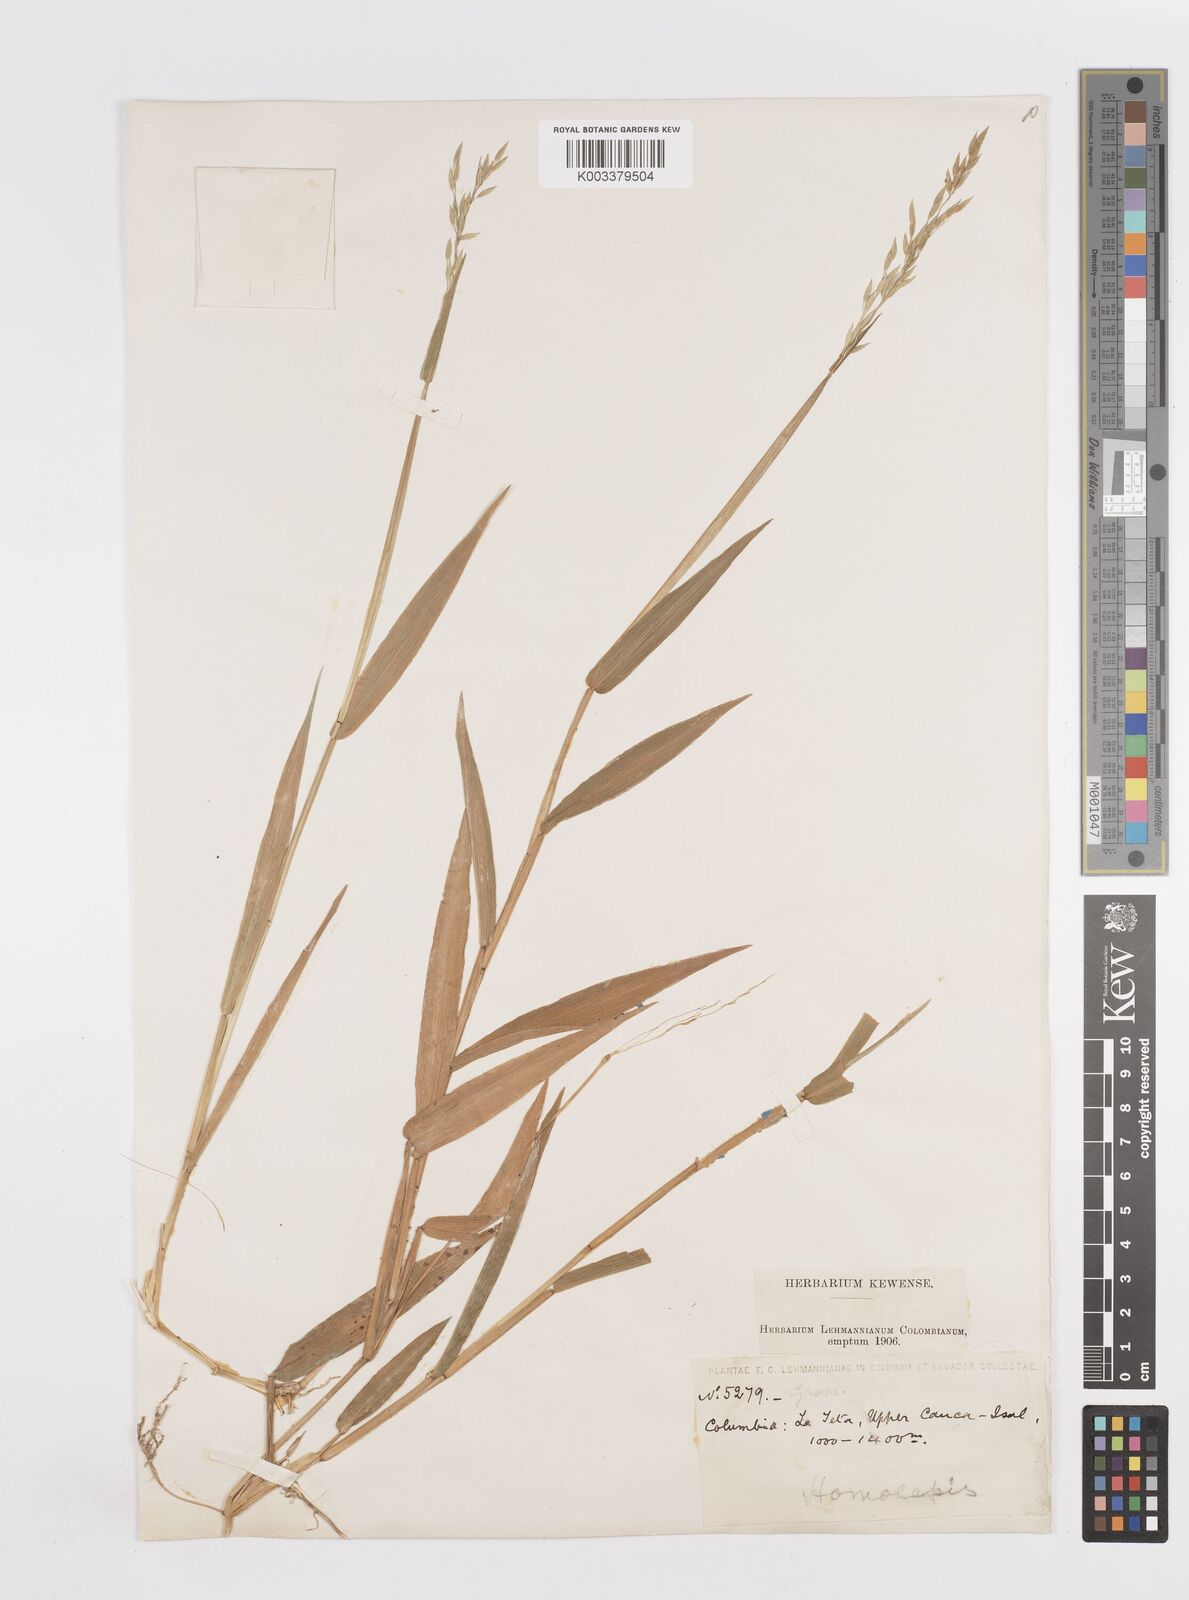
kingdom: Plantae
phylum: Tracheophyta
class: Liliopsida
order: Poales
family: Poaceae
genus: Homolepis
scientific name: Homolepis aturensis
